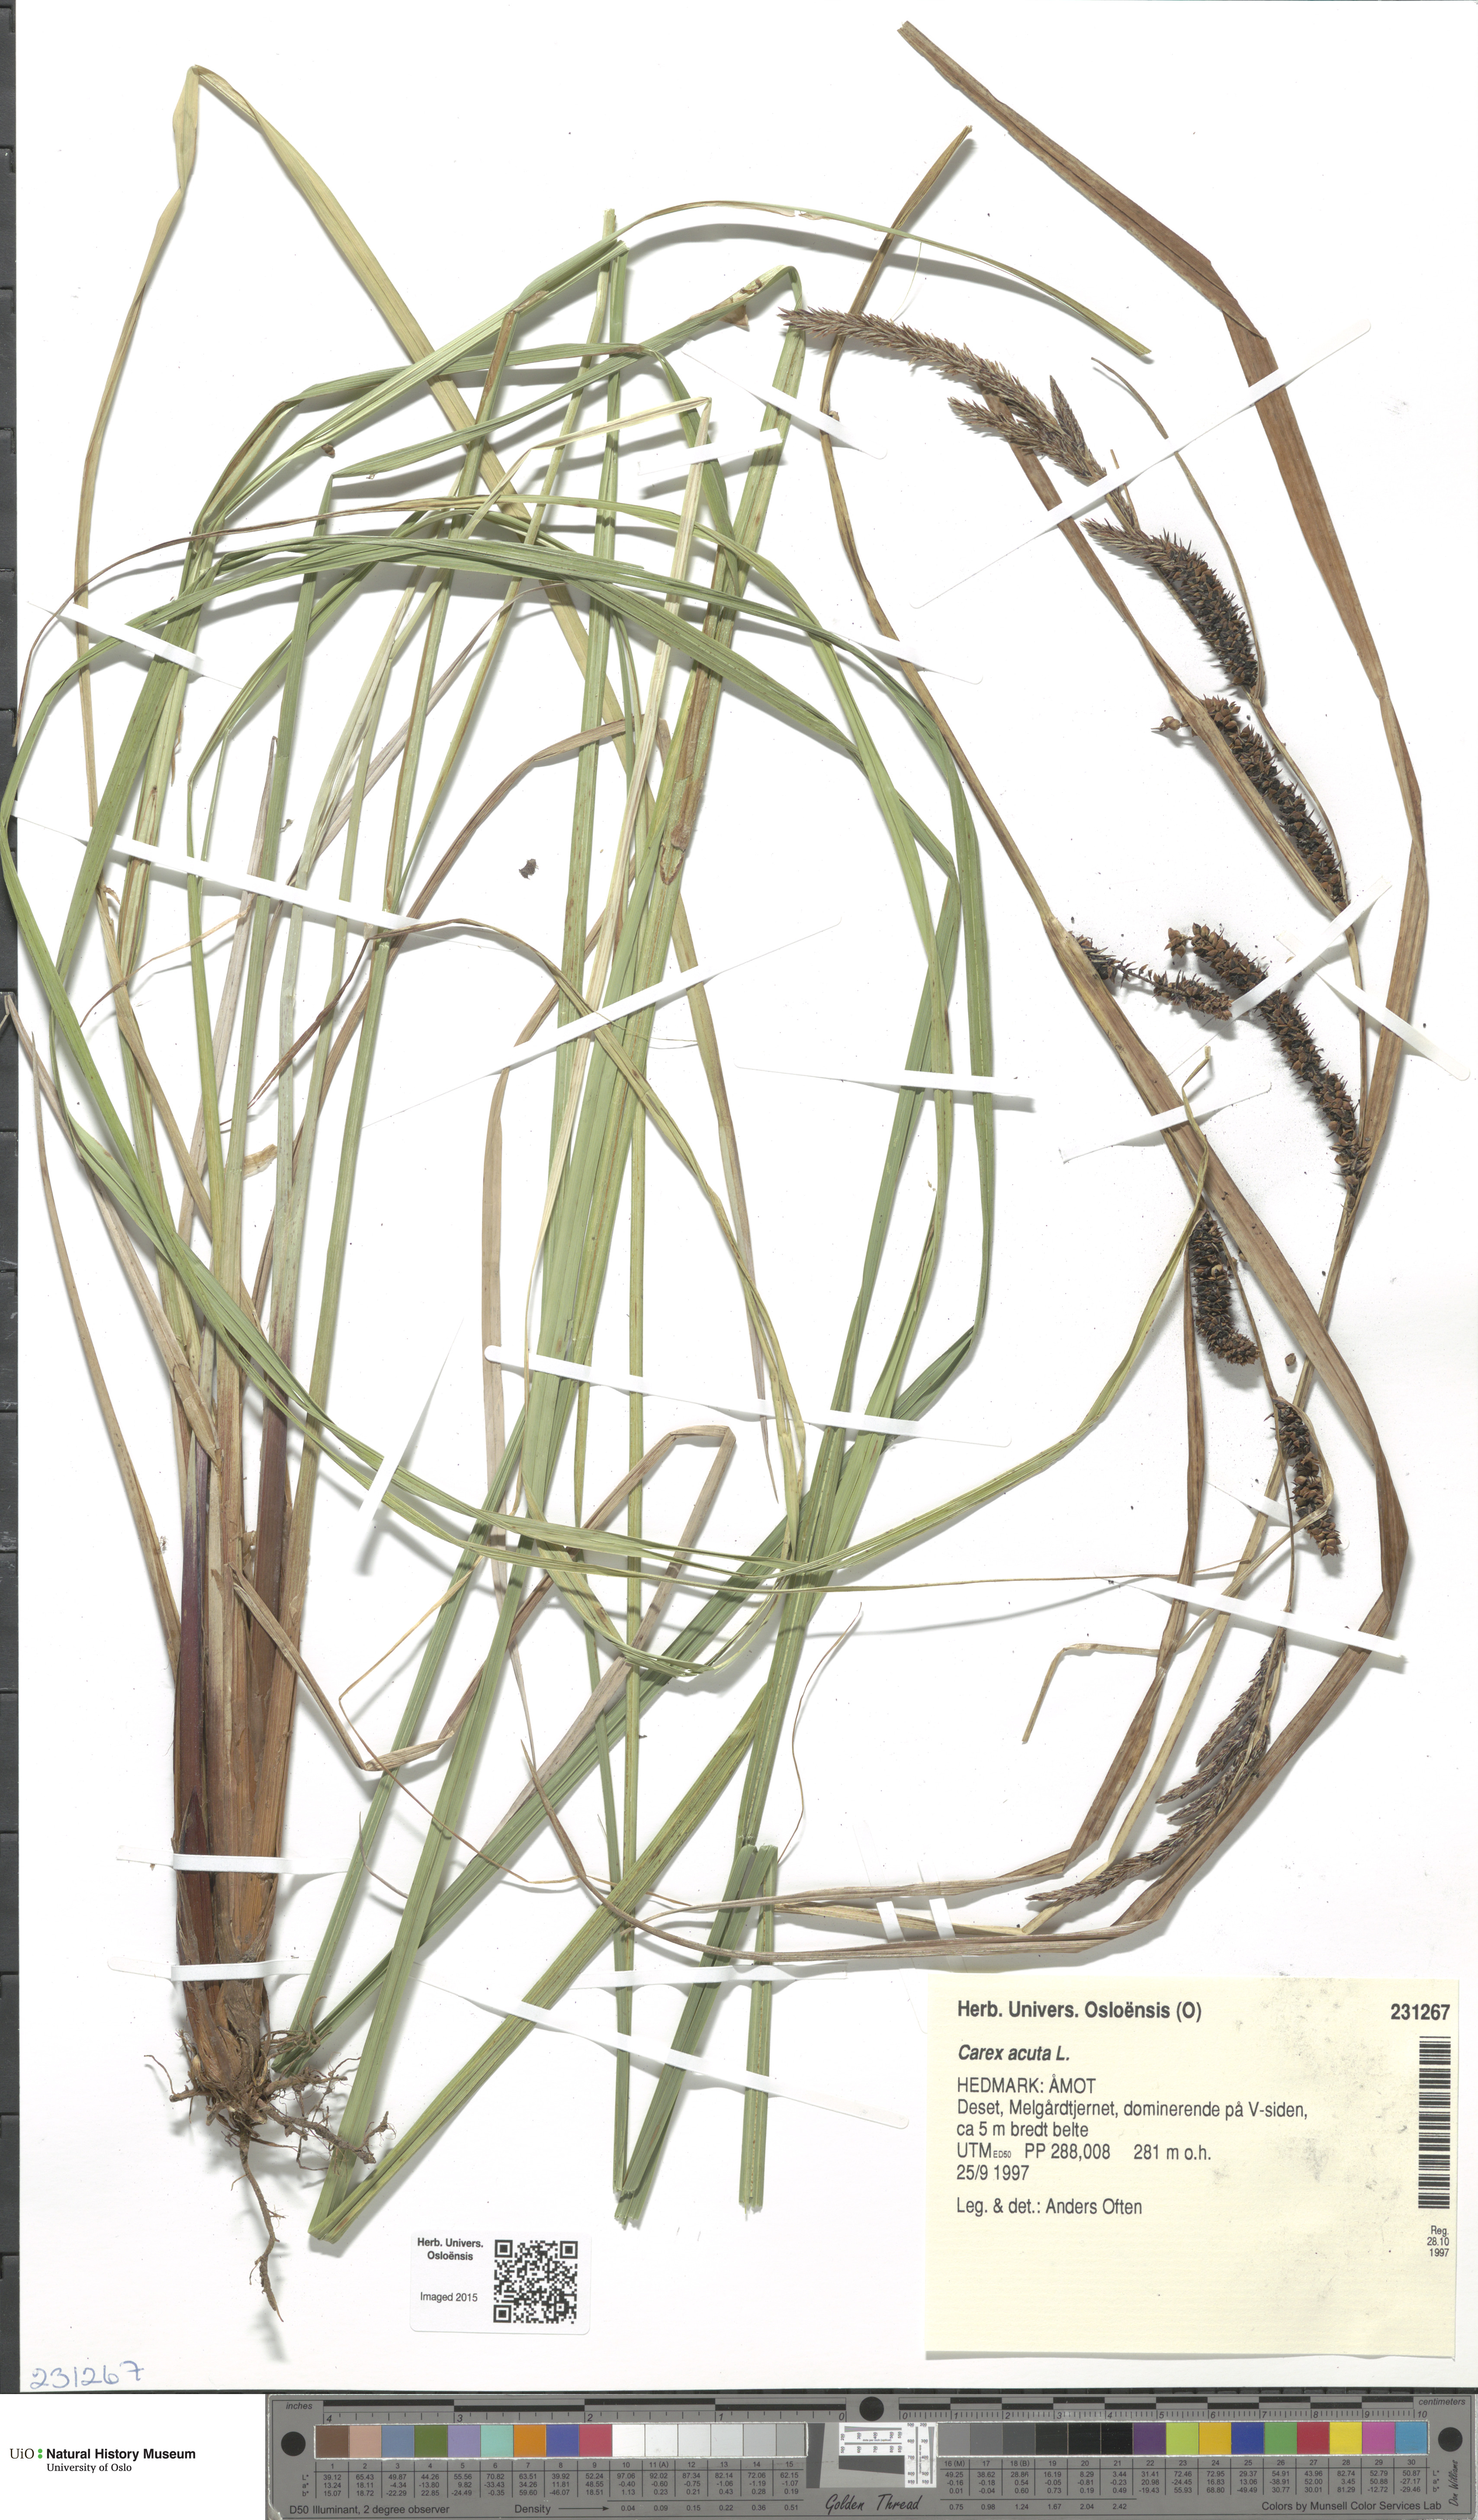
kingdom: Plantae
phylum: Tracheophyta
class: Liliopsida
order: Poales
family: Cyperaceae
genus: Carex
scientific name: Carex acuta
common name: Slender tufted-sedge
